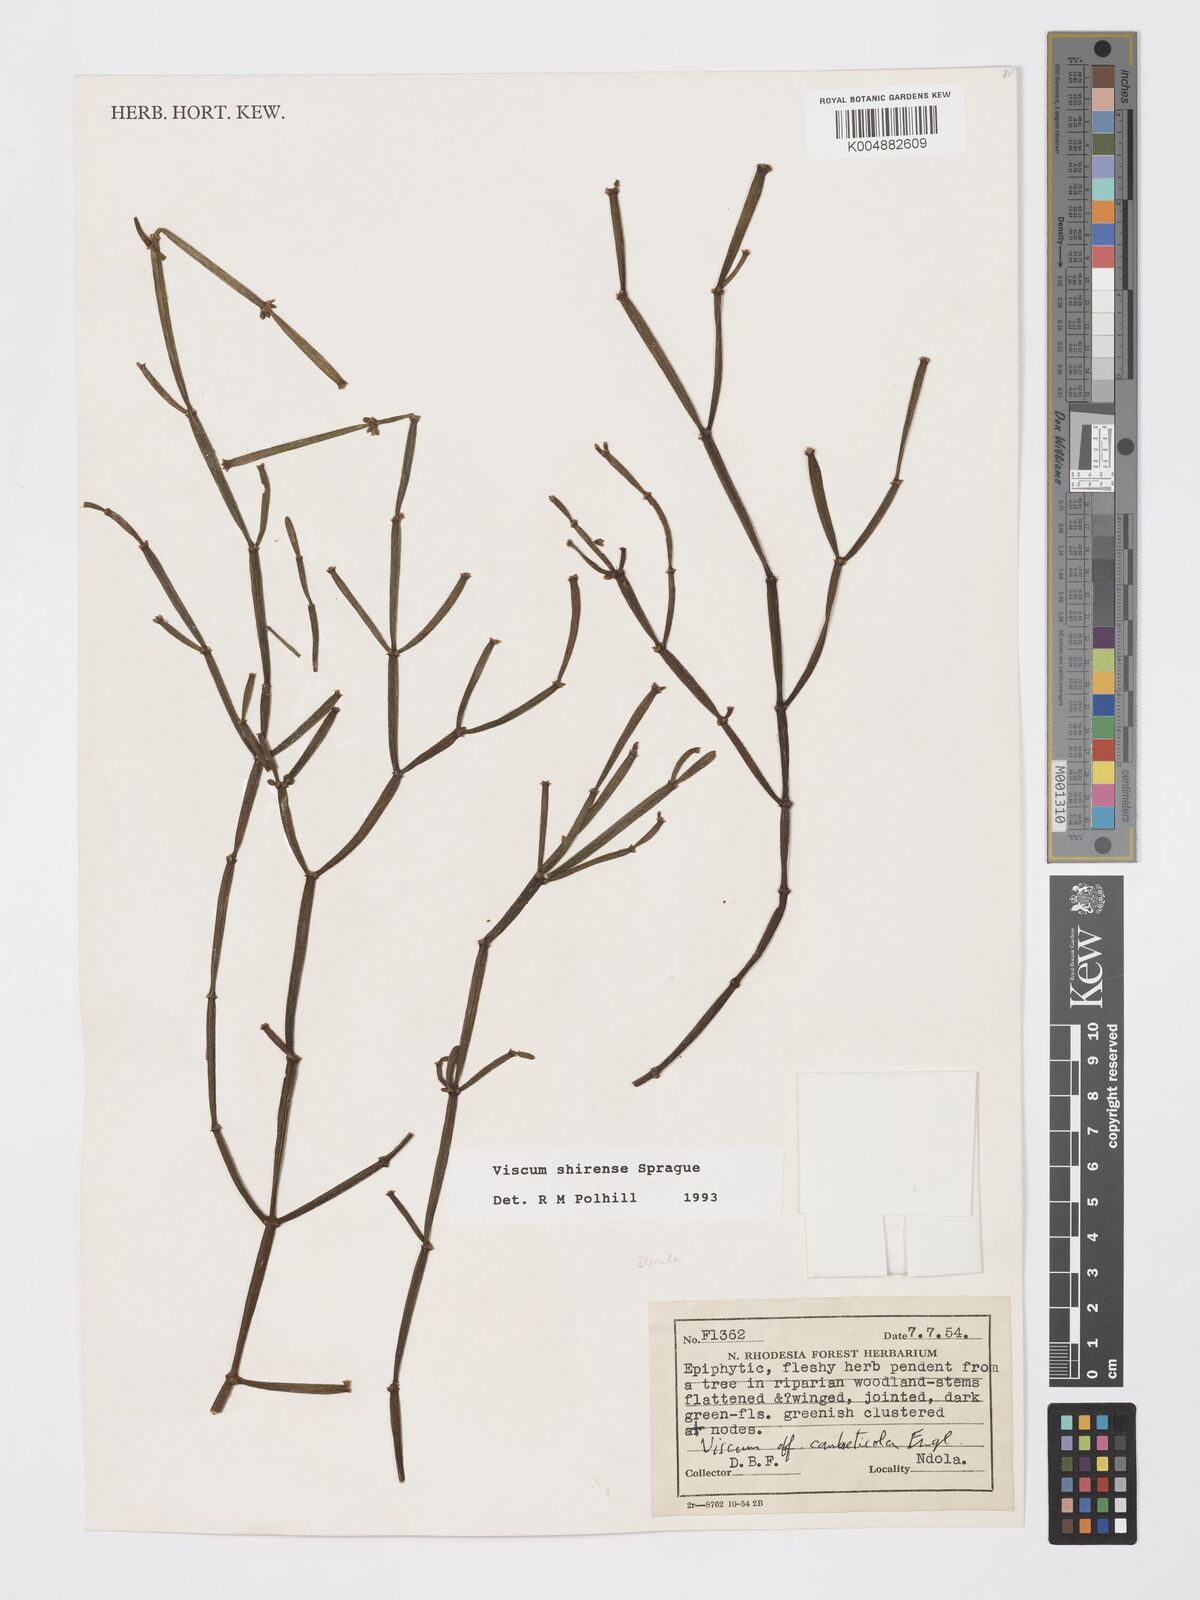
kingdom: Plantae
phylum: Tracheophyta
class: Magnoliopsida
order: Santalales
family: Viscaceae
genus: Viscum
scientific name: Viscum junodii
